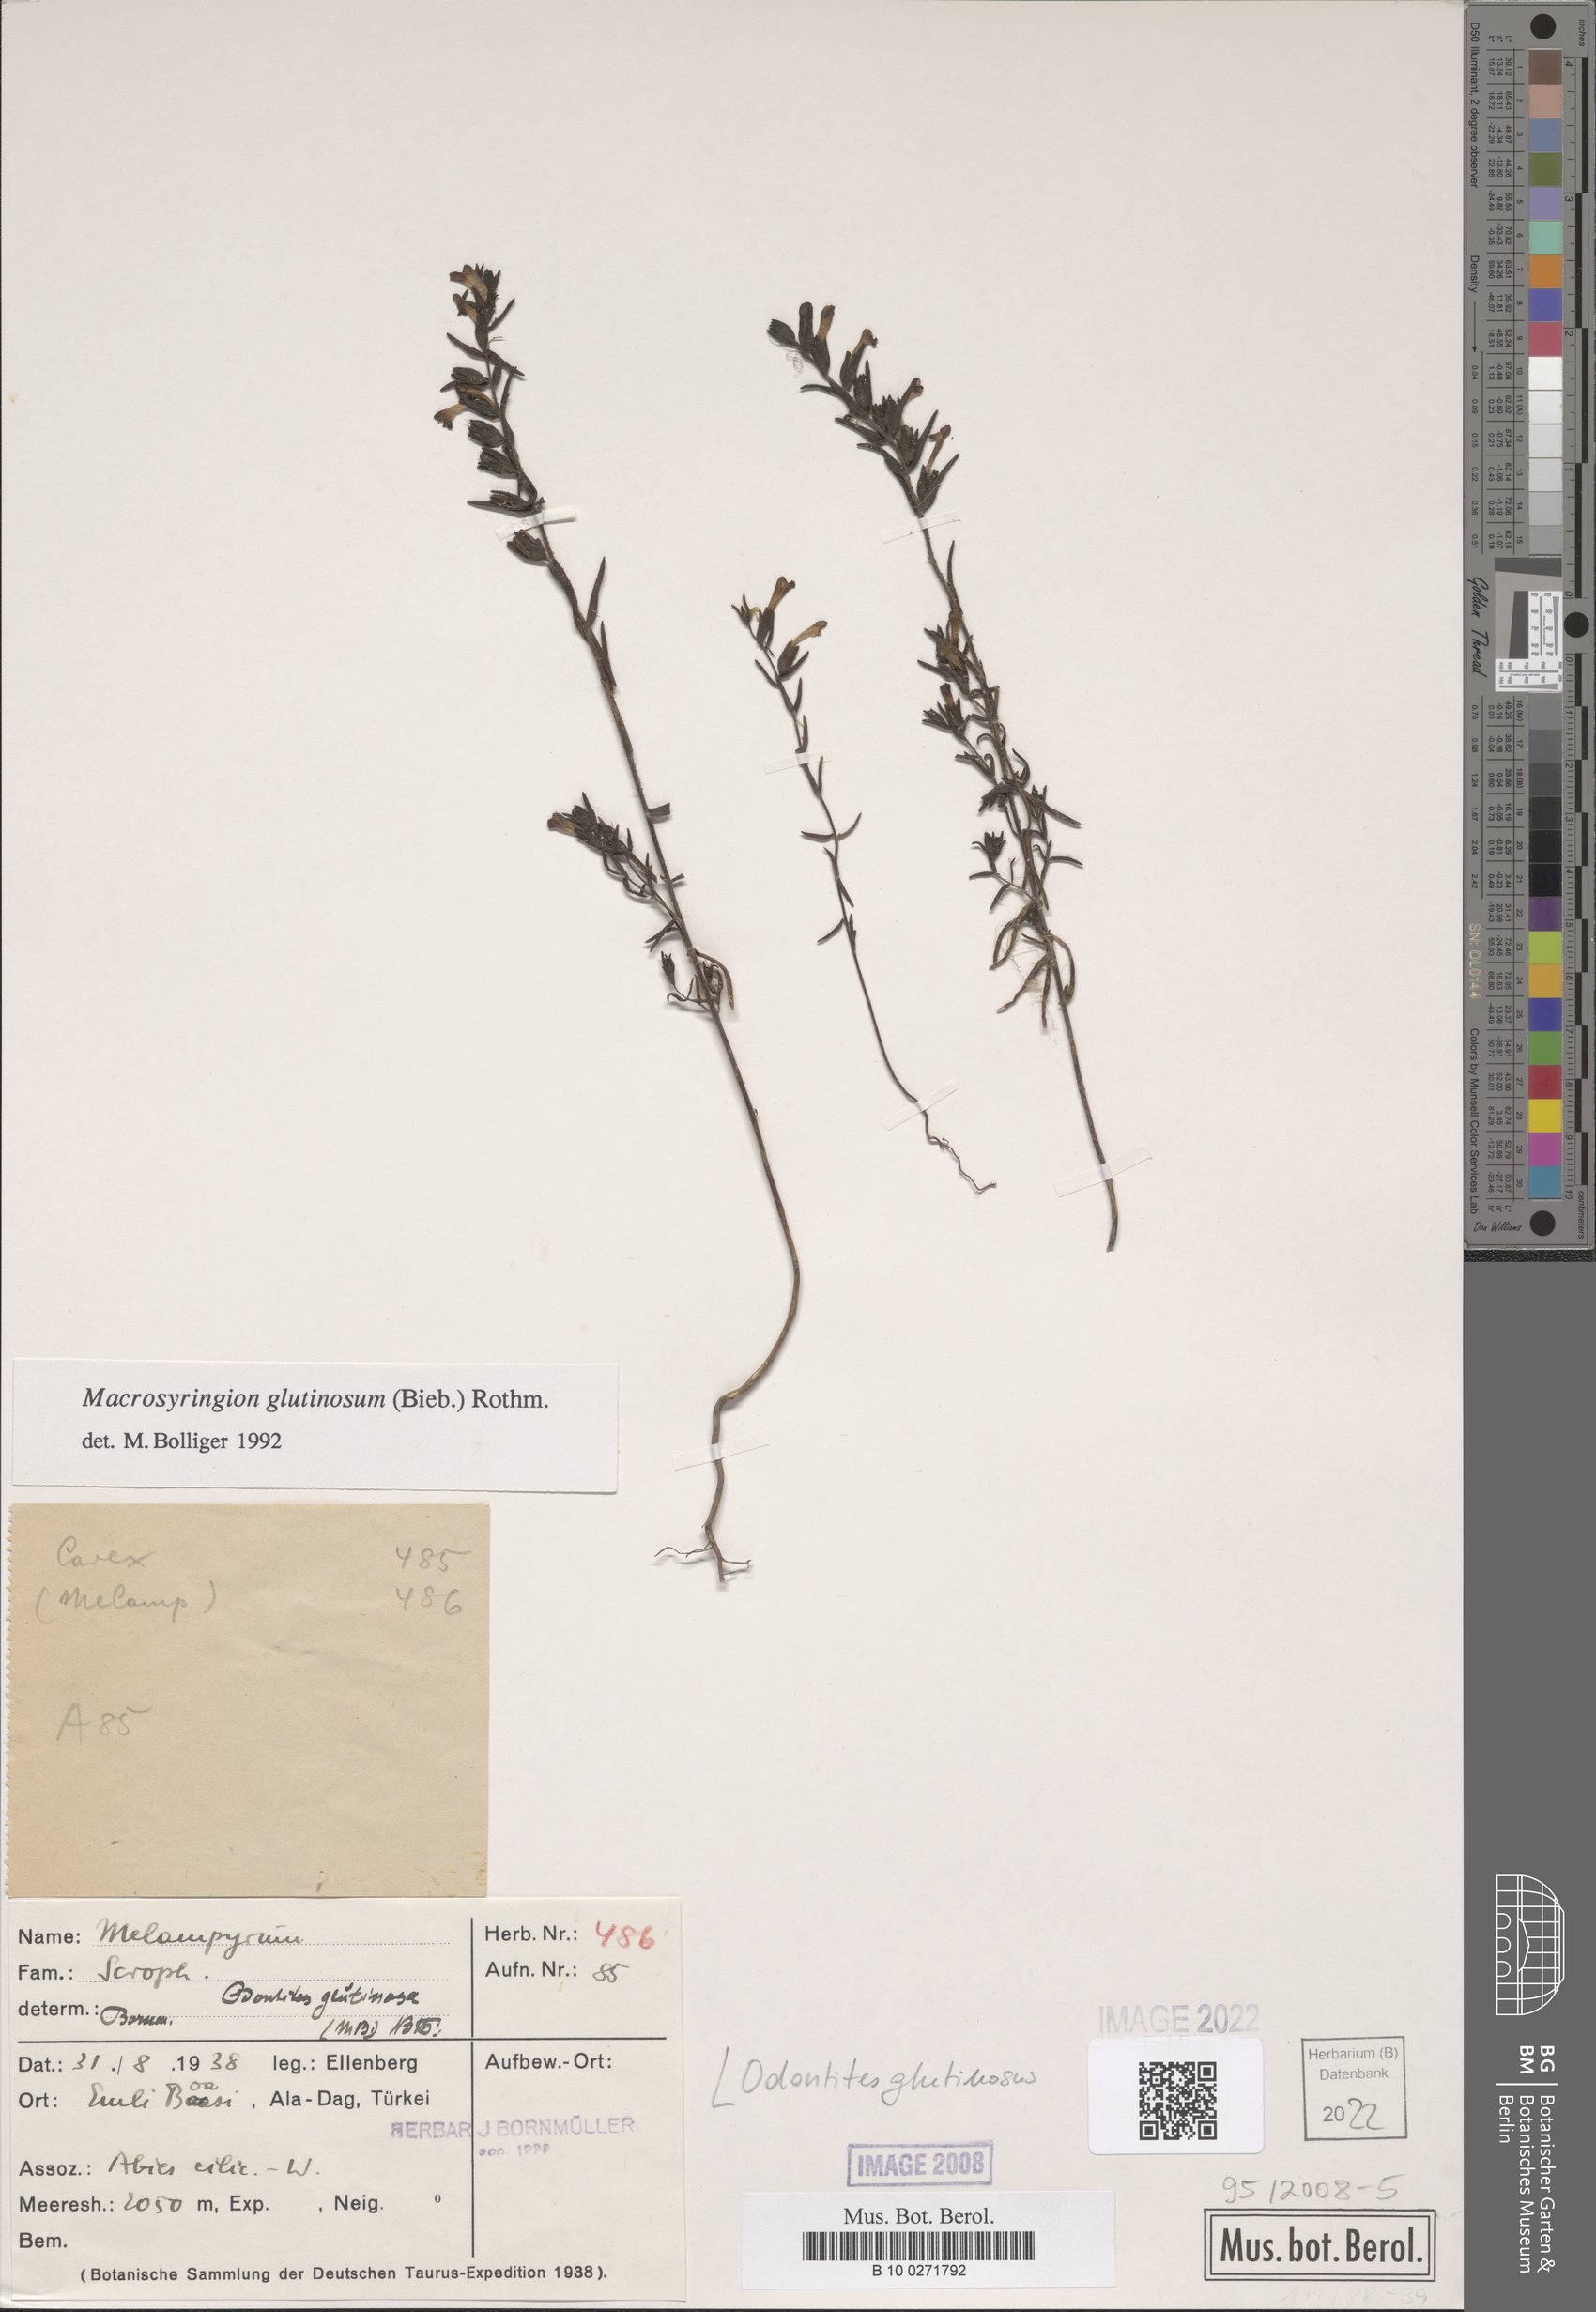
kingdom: Plantae
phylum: Tracheophyta
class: Magnoliopsida
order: Lamiales
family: Orobanchaceae
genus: Odontites
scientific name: Odontites glutinosus
